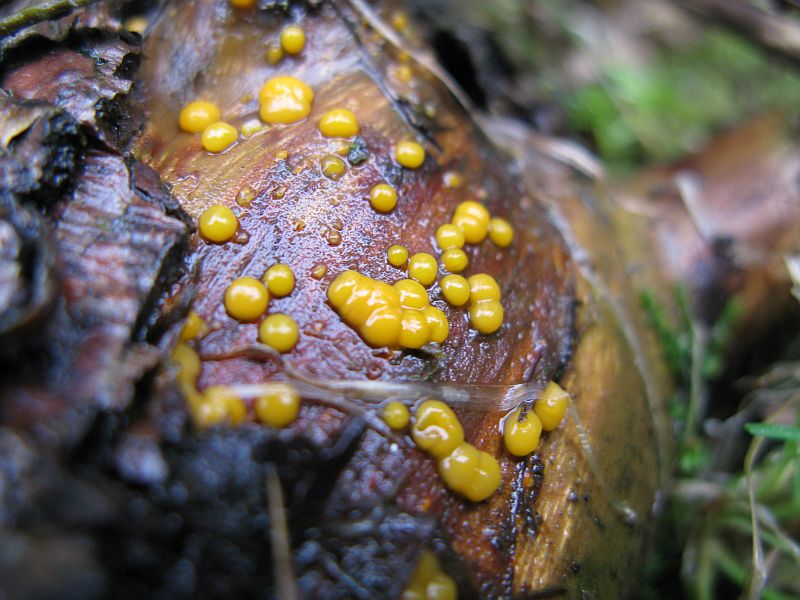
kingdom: Fungi
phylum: Basidiomycota
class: Dacrymycetes
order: Dacrymycetales
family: Dacrymycetaceae
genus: Dacrymyces
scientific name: Dacrymyces stillatus
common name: almindelig tåresvamp
